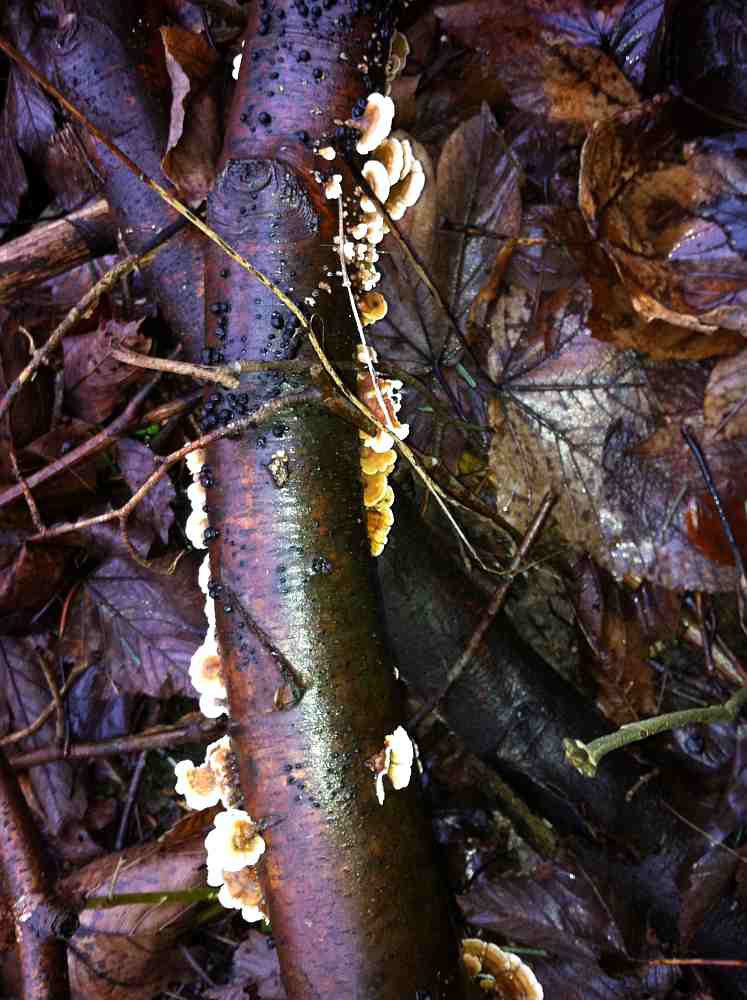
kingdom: Fungi
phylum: Basidiomycota
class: Agaricomycetes
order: Amylocorticiales
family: Amylocorticiaceae
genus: Plicaturopsis
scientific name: Plicaturopsis crispa
